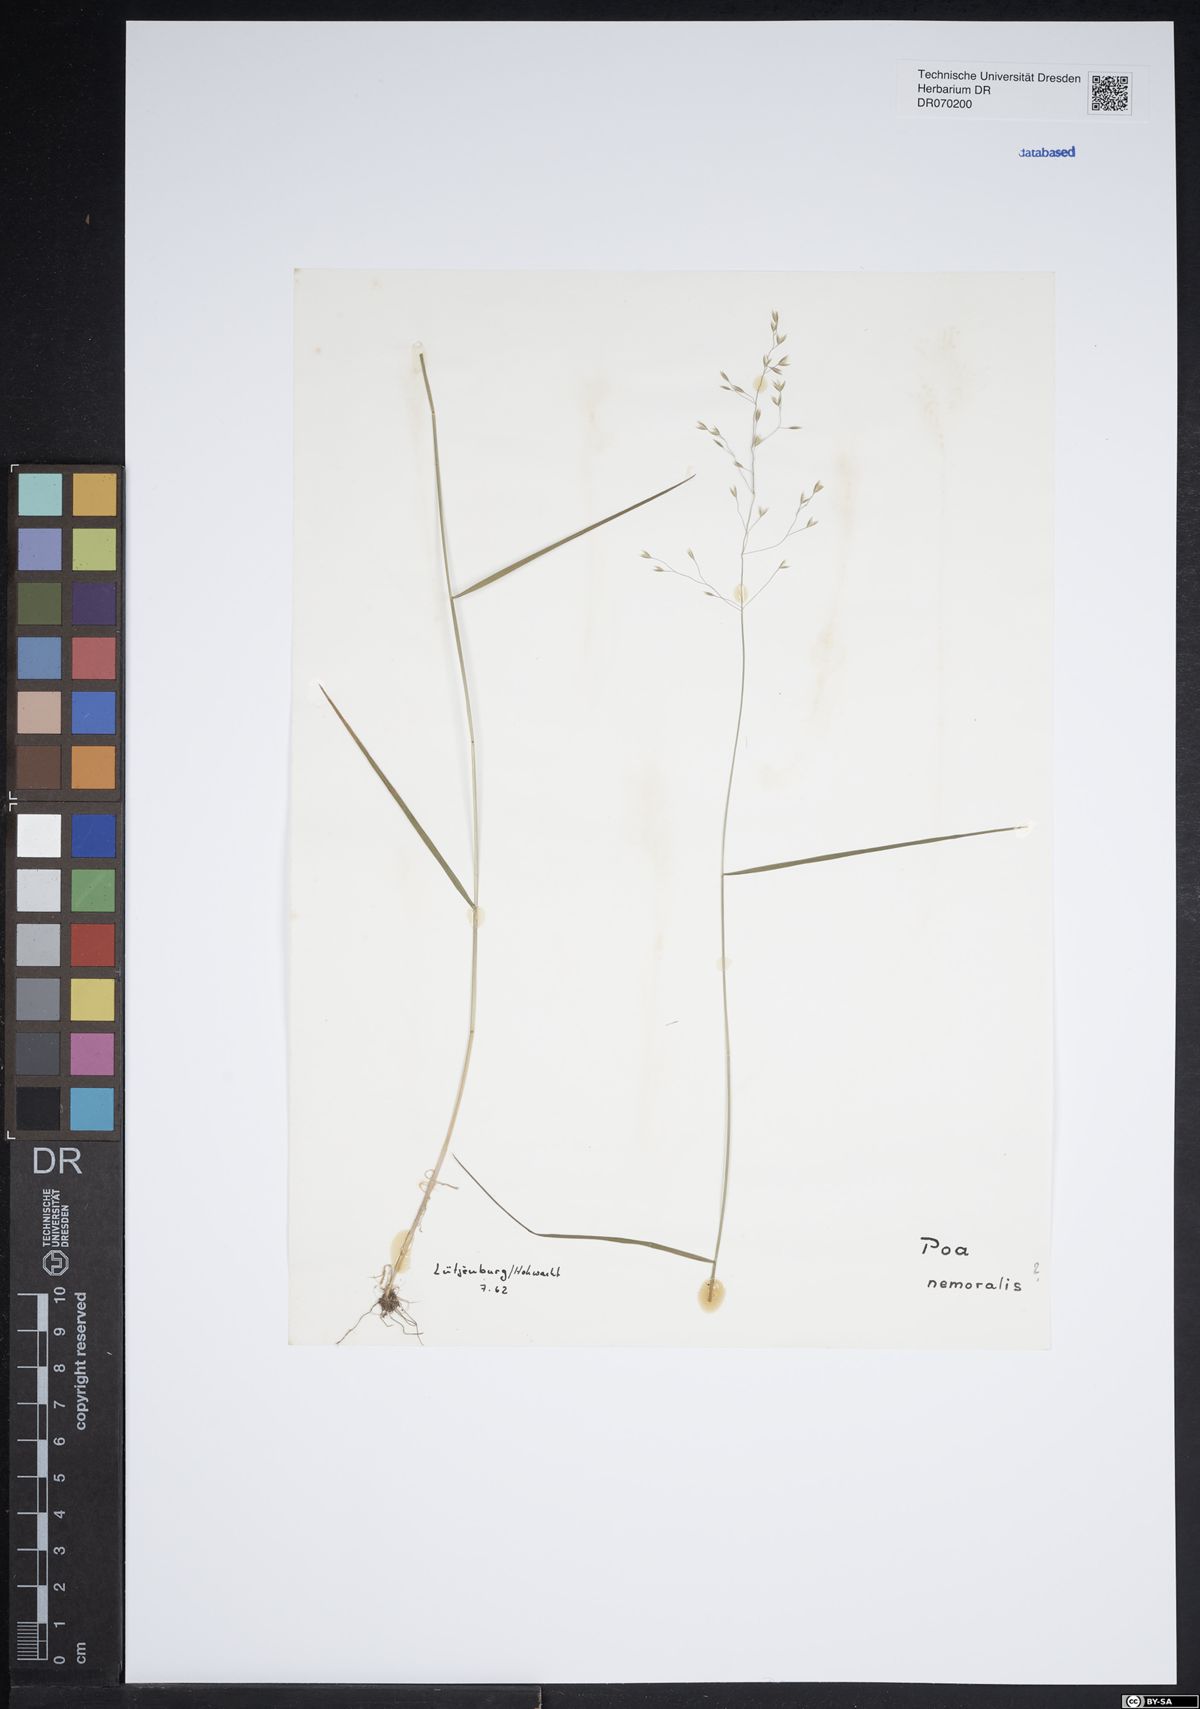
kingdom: Plantae
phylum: Tracheophyta
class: Liliopsida
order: Poales
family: Poaceae
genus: Poa
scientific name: Poa nemoralis
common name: Wood bluegrass
